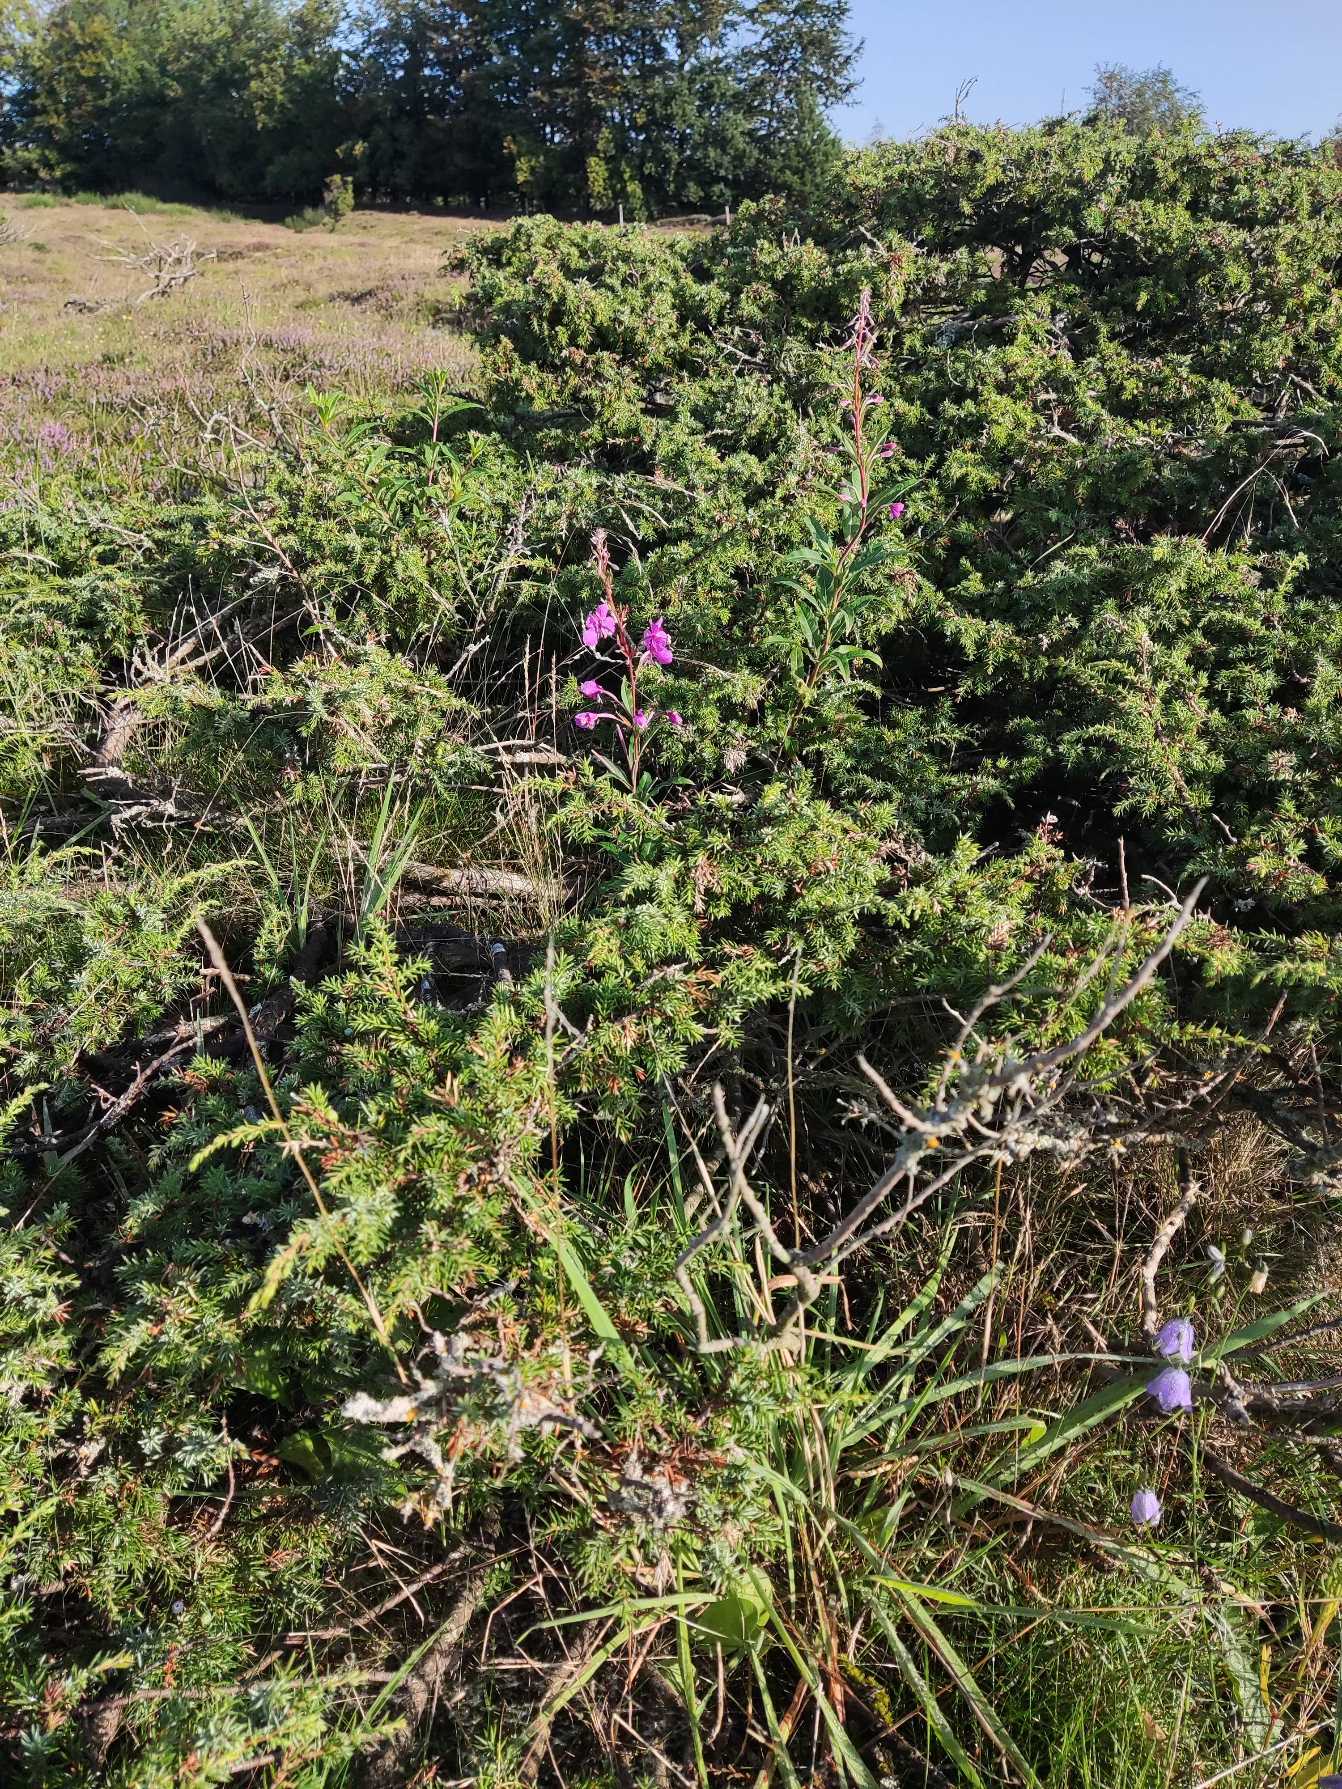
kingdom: Plantae
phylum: Tracheophyta
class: Magnoliopsida
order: Myrtales
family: Onagraceae
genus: Chamaenerion
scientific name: Chamaenerion angustifolium
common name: Gederams
